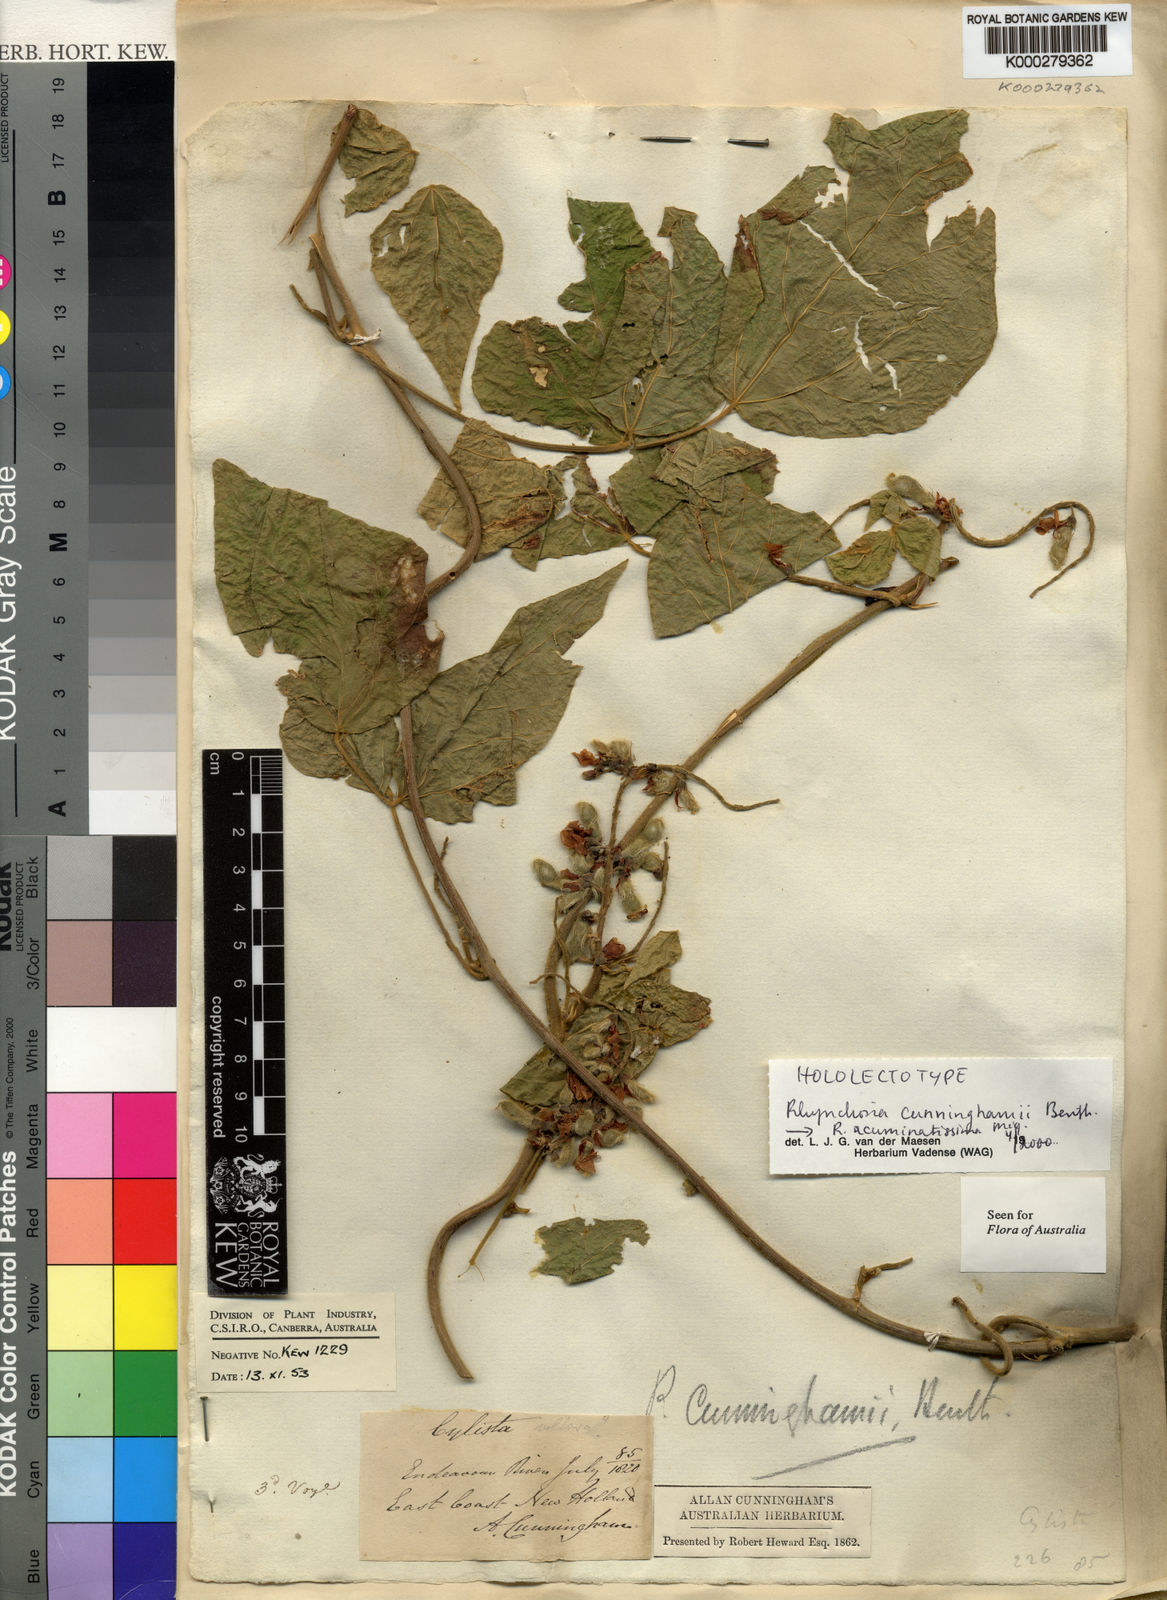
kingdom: Plantae
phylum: Tracheophyta
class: Magnoliopsida
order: Fabales
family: Fabaceae
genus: Rhynchosia
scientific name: Rhynchosia acuminatissima
